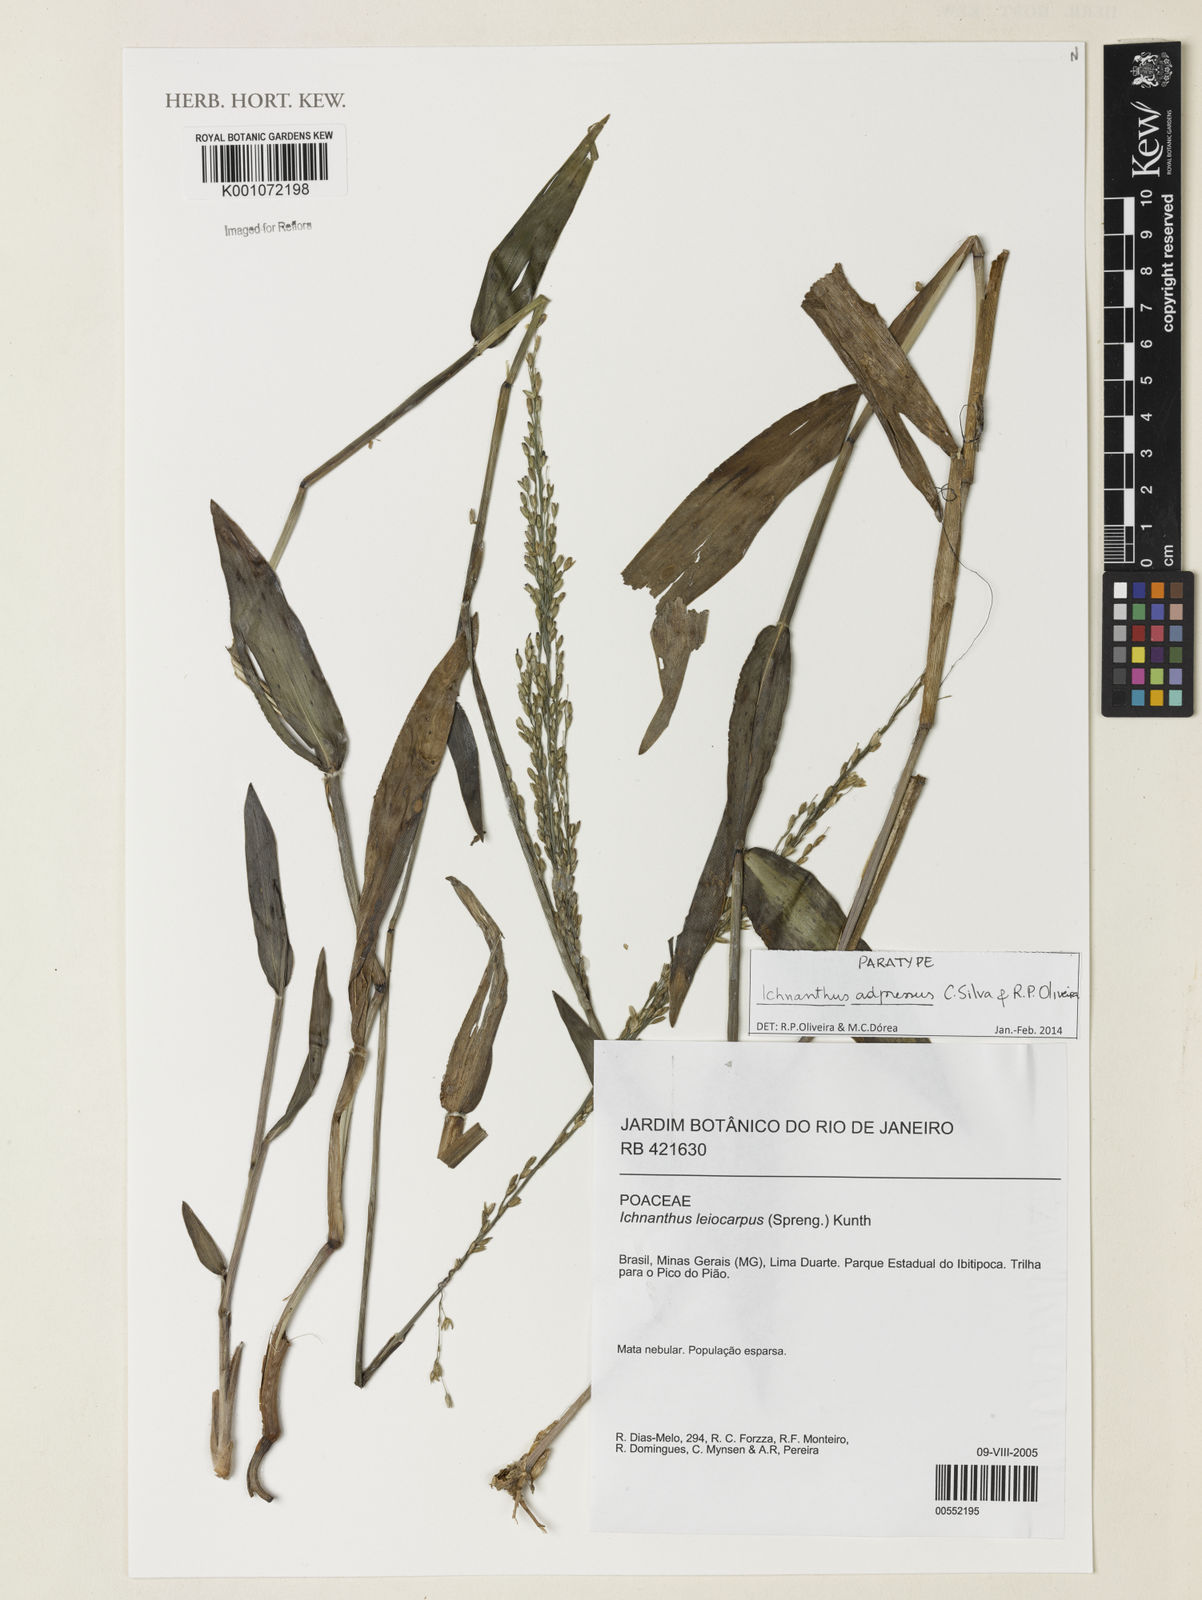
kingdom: Plantae
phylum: Tracheophyta
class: Liliopsida
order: Poales
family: Poaceae
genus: Ichnanthus
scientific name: Ichnanthus adpressus
